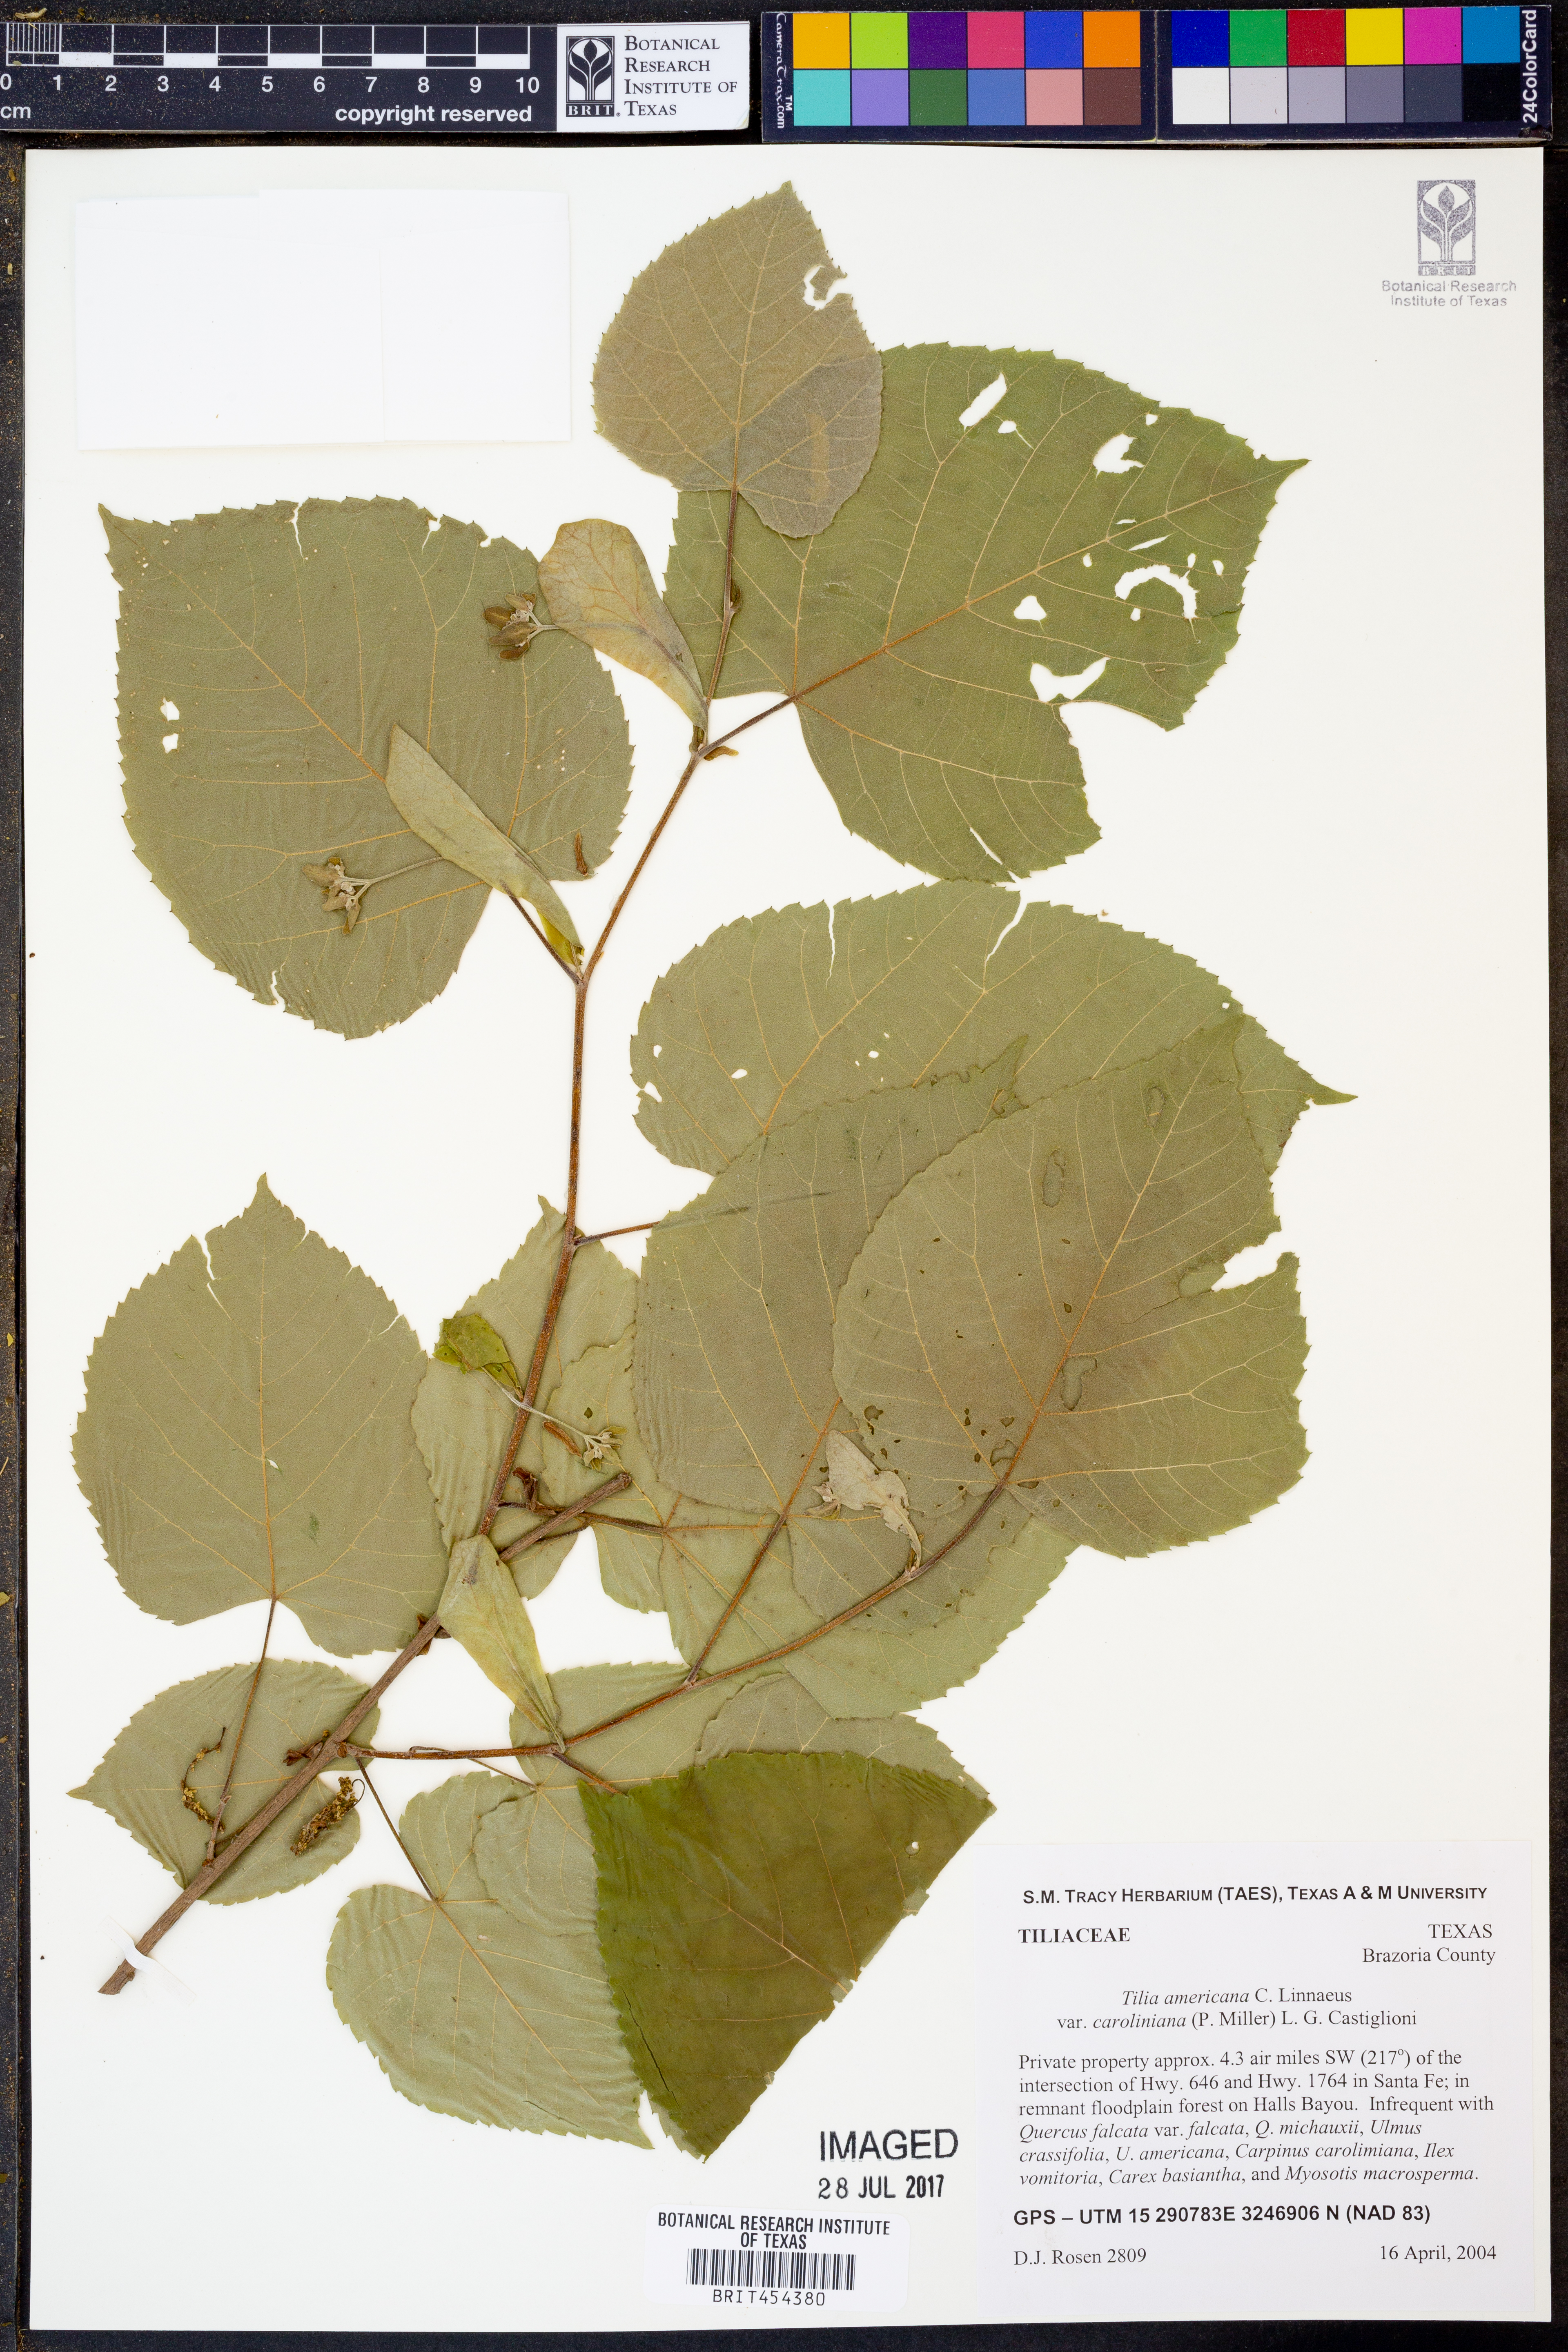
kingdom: Plantae
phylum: Tracheophyta
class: Magnoliopsida
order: Malvales
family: Malvaceae
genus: Tilia
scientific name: Tilia americana
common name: Basswood
